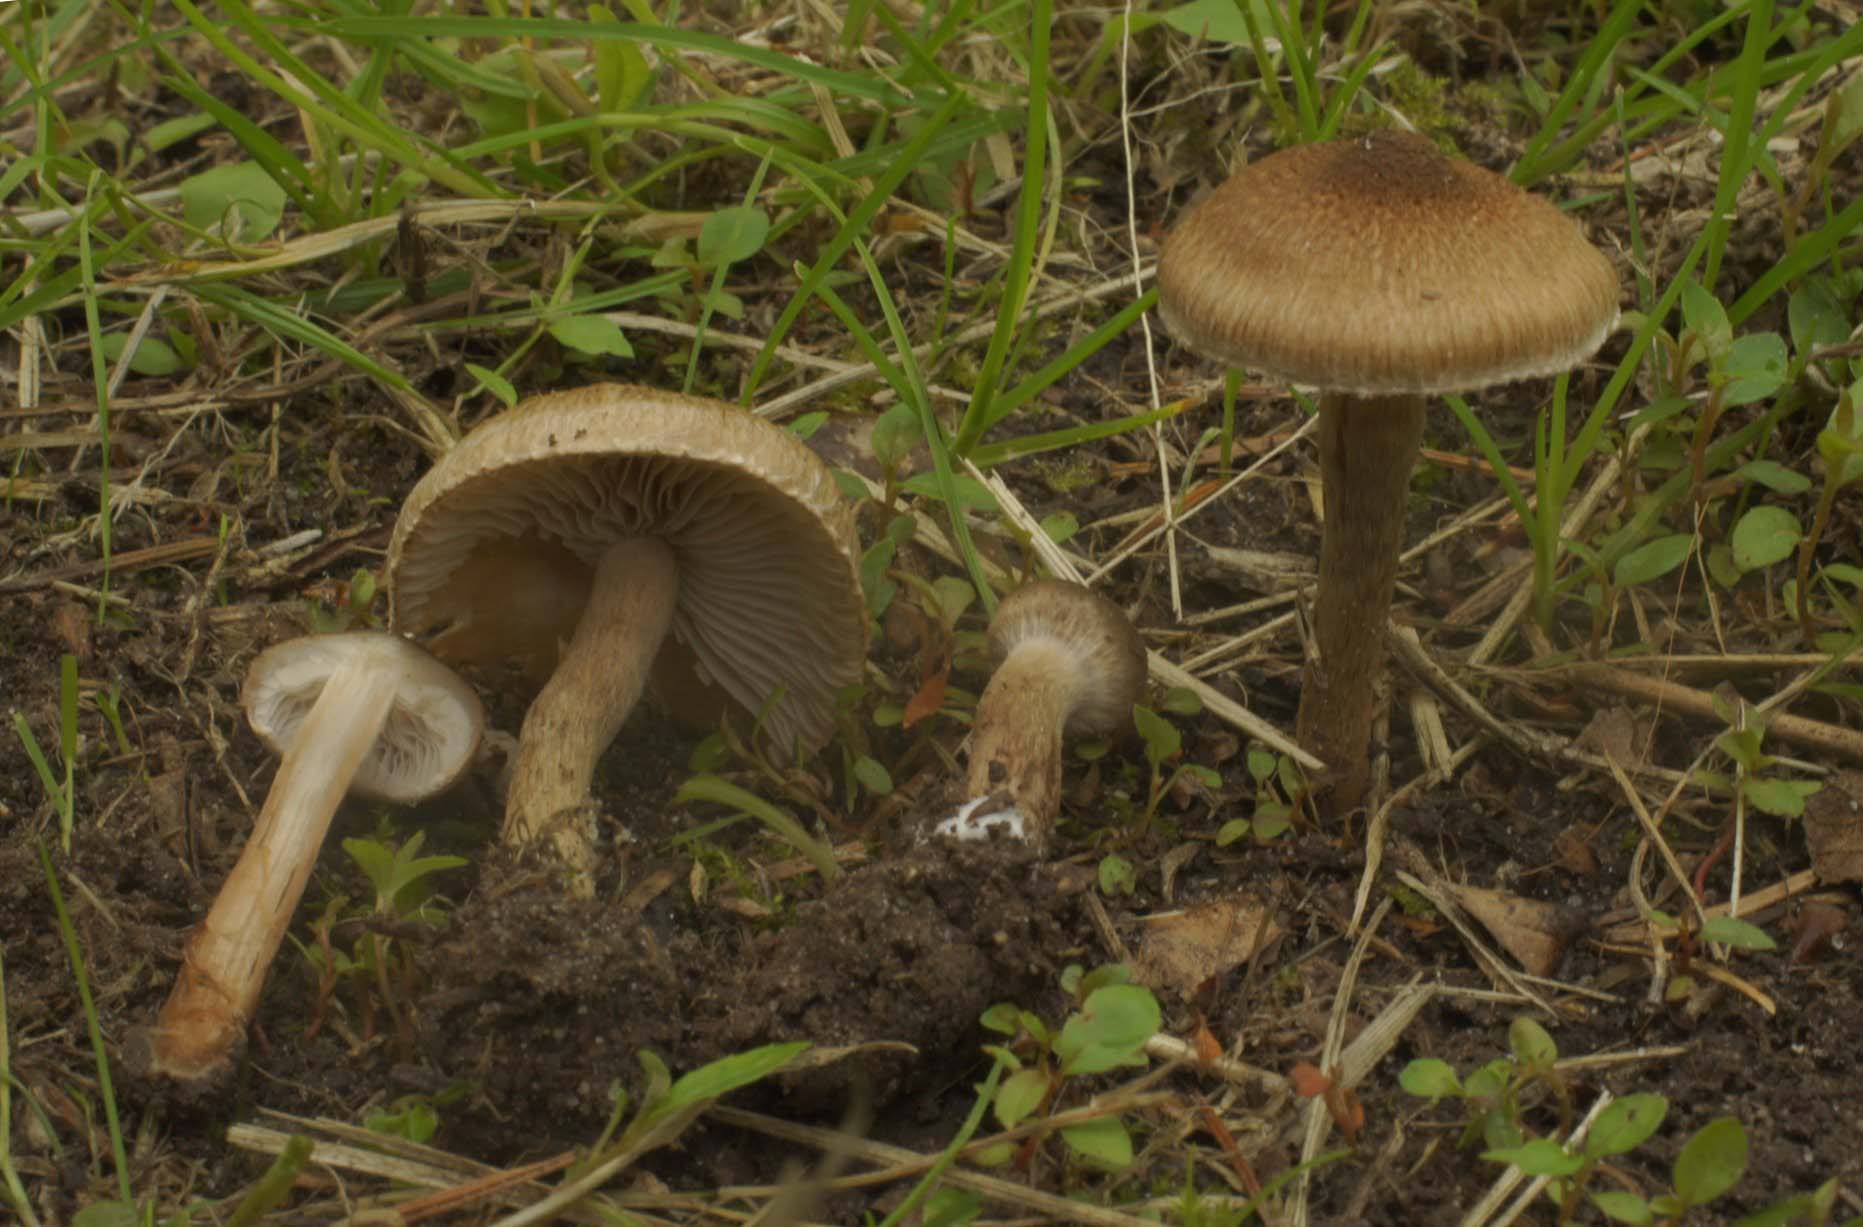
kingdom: Fungi
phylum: Basidiomycota
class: Agaricomycetes
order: Agaricales
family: Inocybaceae
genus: Inocybe
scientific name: Inocybe curvipes
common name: plæne-trævlhat
